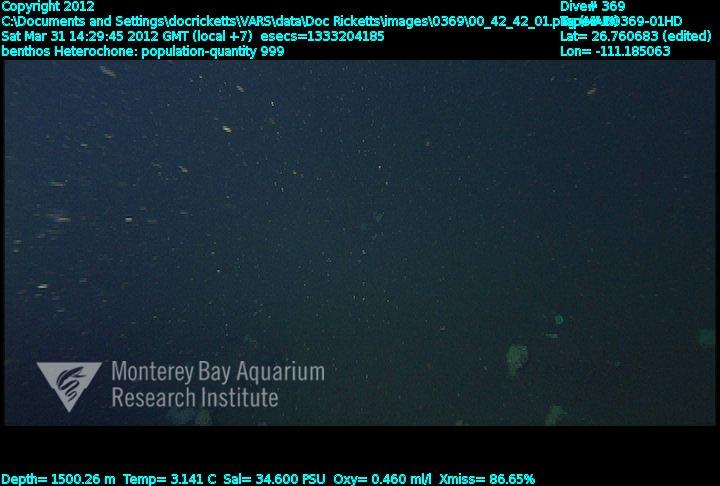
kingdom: Animalia
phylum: Porifera
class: Hexactinellida
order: Sceptrulophora
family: Aphrocallistidae
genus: Heterochone
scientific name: Heterochone
